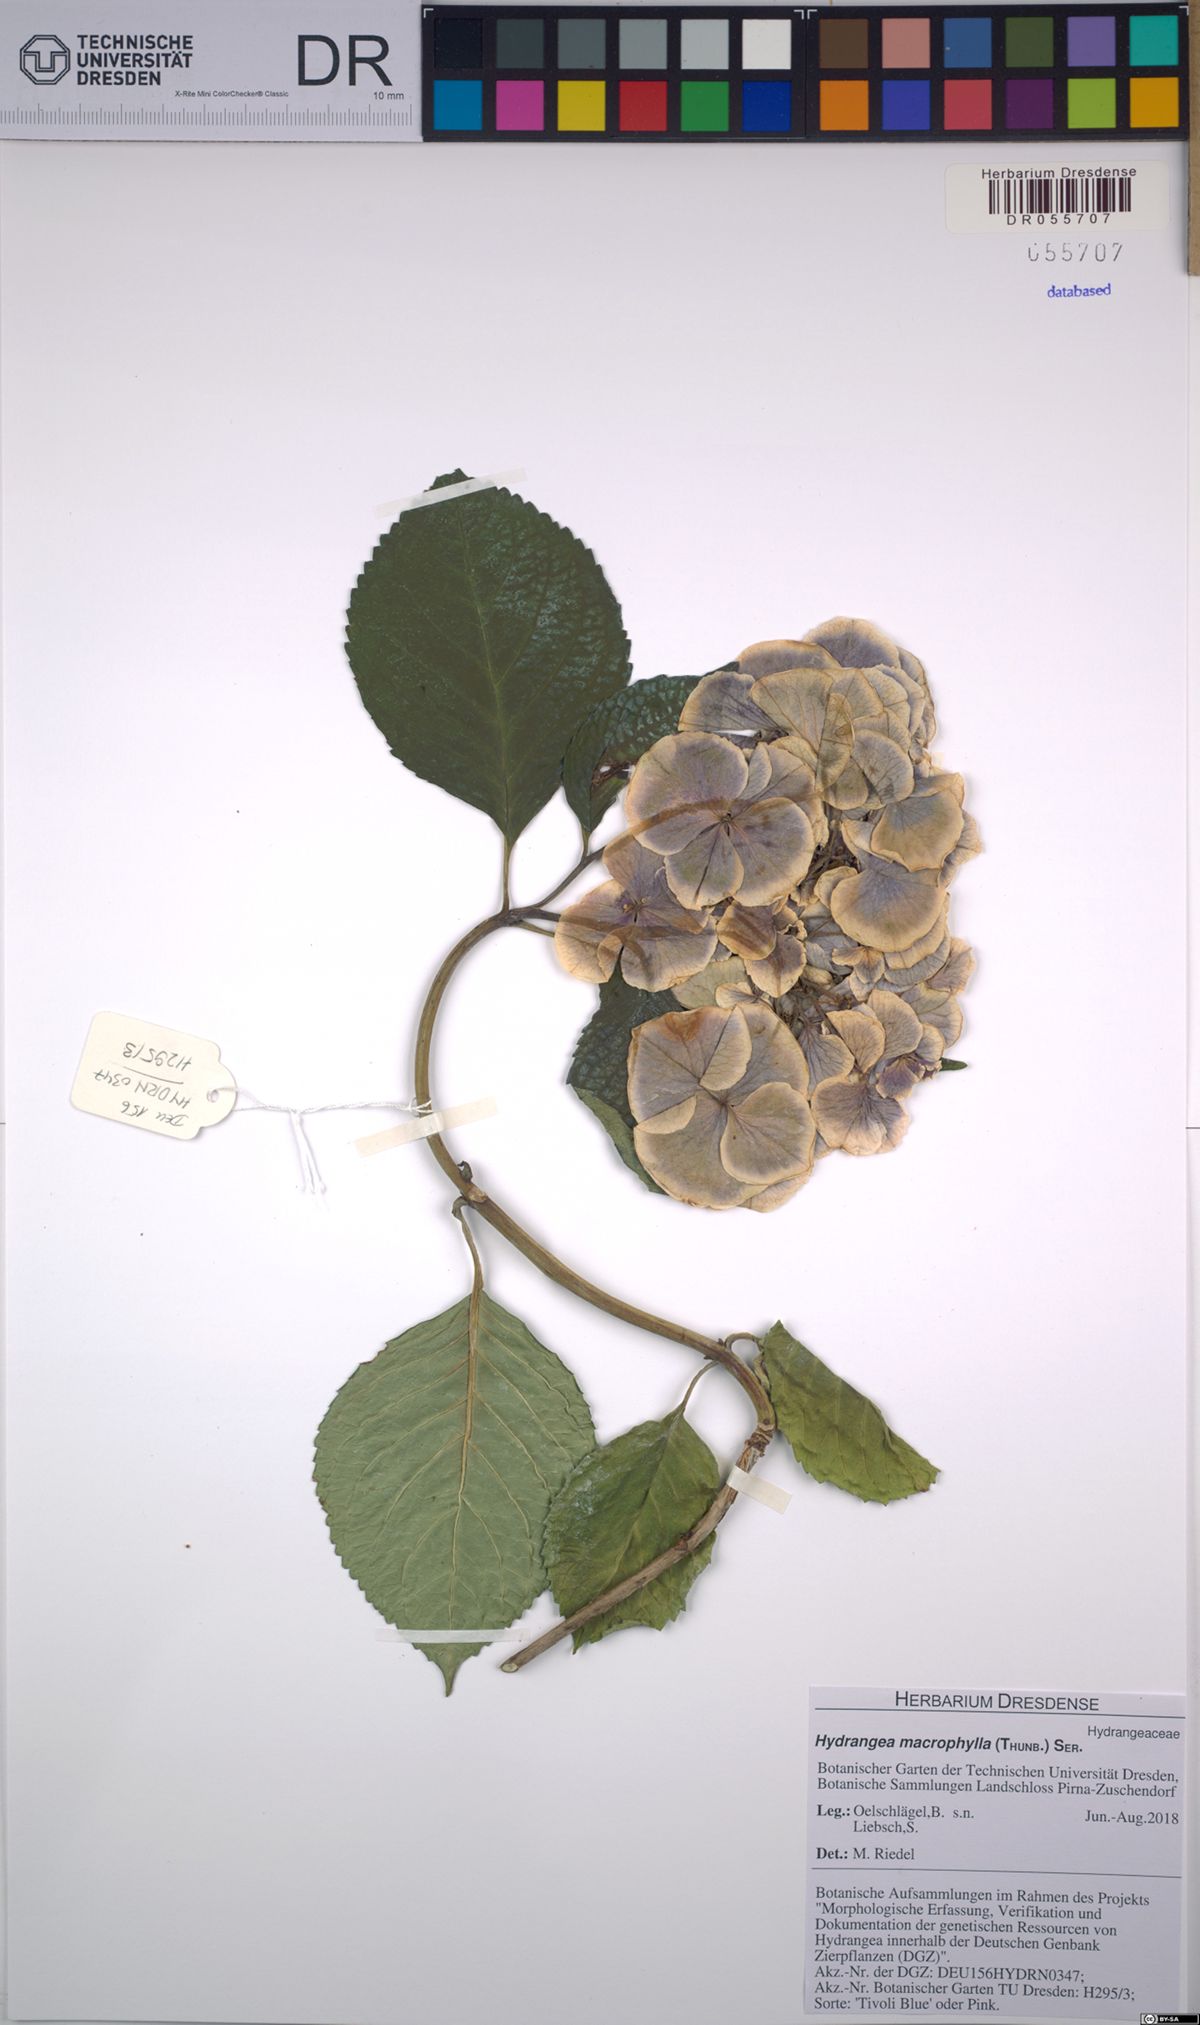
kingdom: Plantae
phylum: Tracheophyta
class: Magnoliopsida
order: Cornales
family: Hydrangeaceae
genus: Hydrangea
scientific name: Hydrangea macrophylla
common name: Hydrangea
